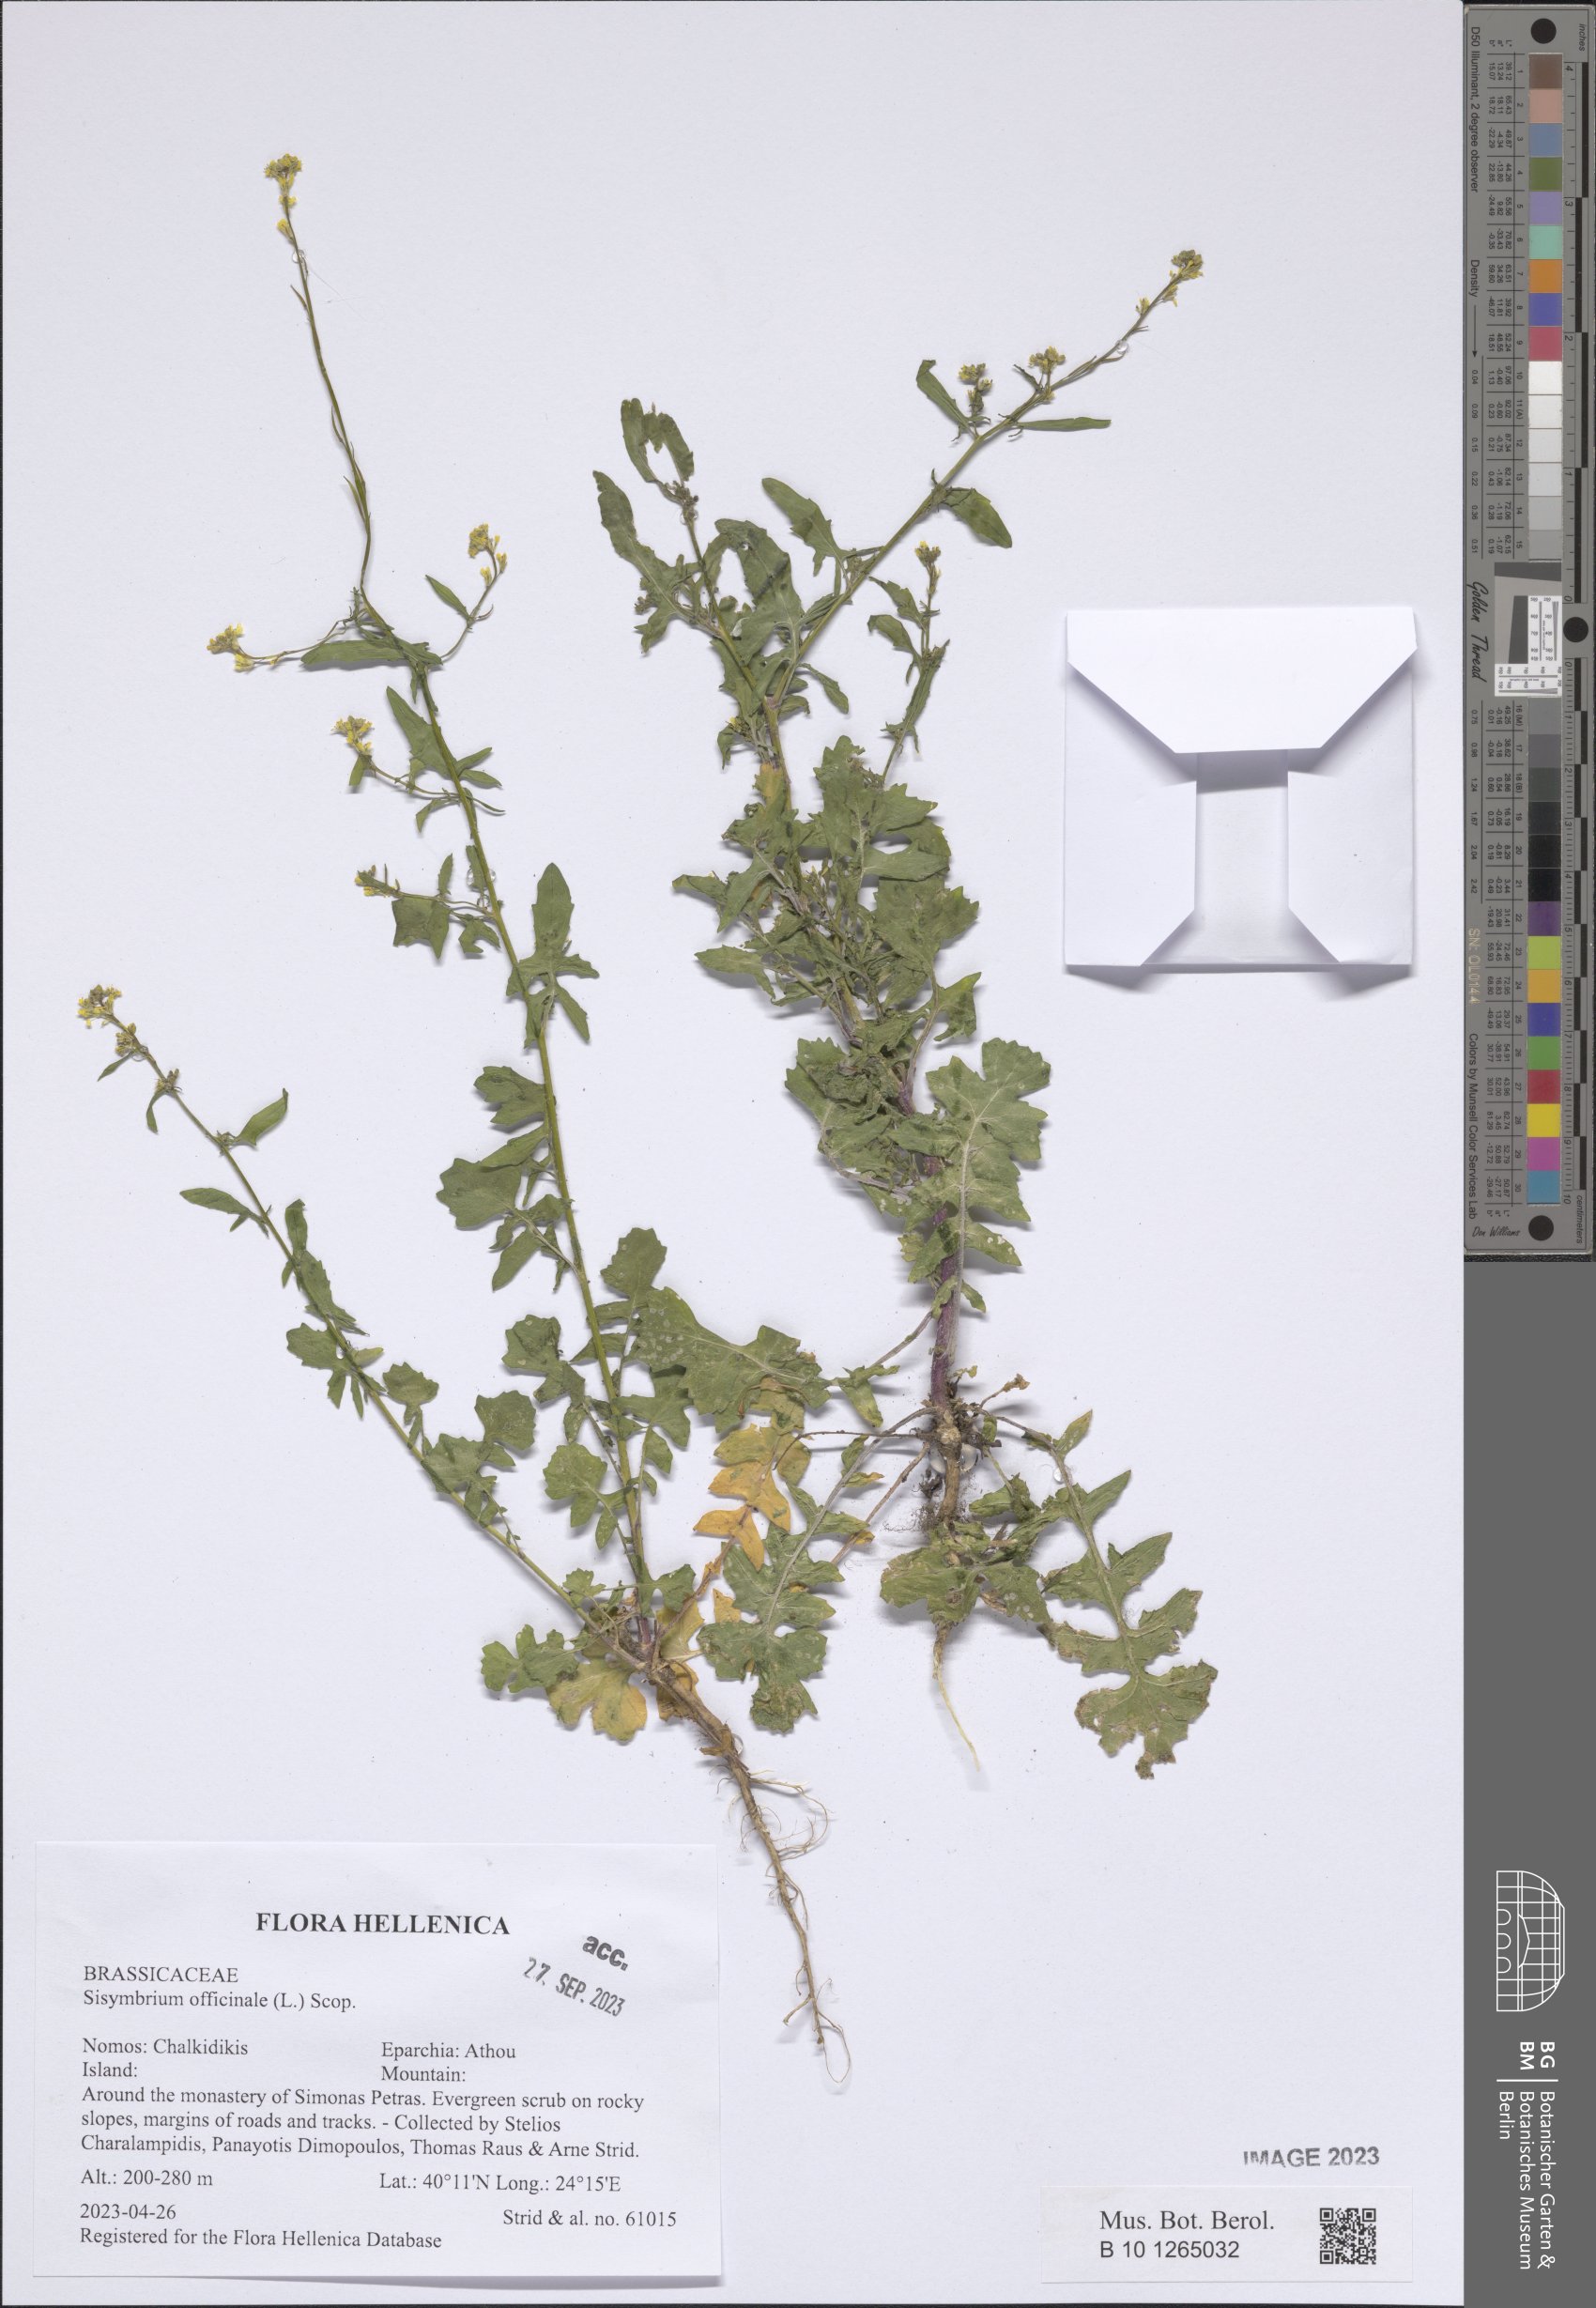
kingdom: Plantae
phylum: Tracheophyta
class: Magnoliopsida
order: Brassicales
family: Brassicaceae
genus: Sisymbrium
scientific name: Sisymbrium officinale
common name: Hedge mustard
